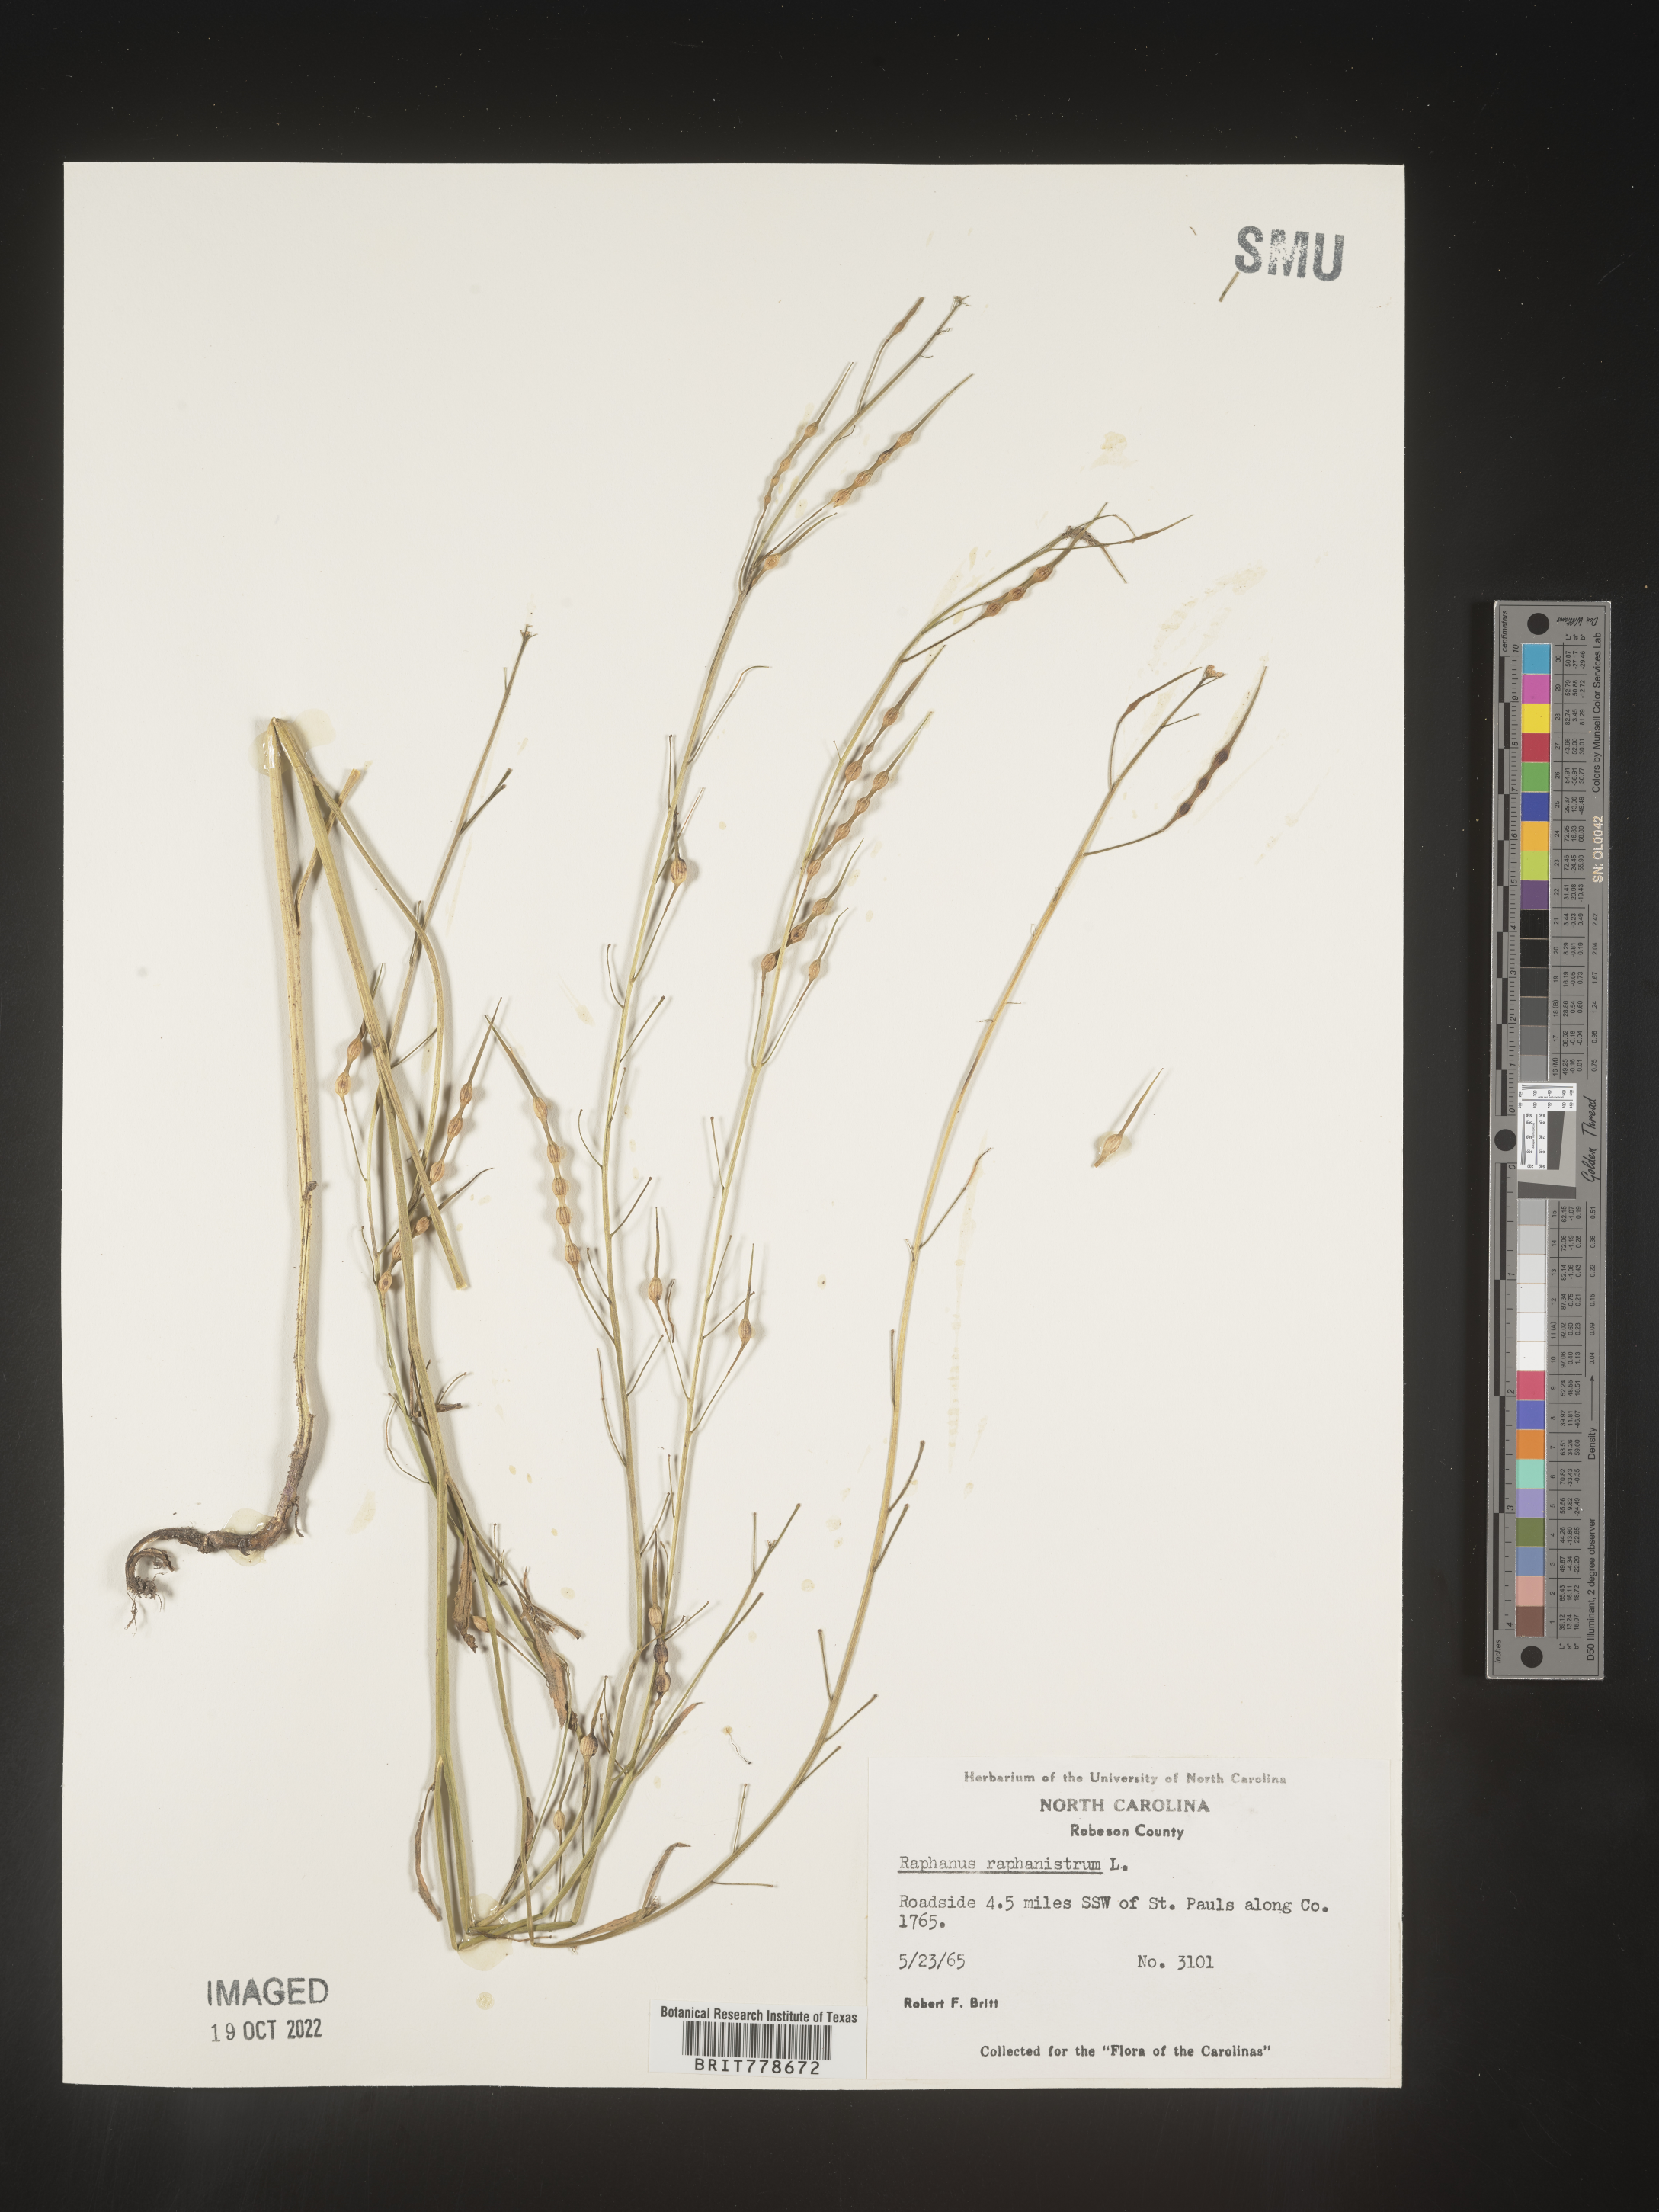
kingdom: Plantae
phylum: Tracheophyta
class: Magnoliopsida
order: Brassicales
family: Brassicaceae
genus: Raphanus
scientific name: Raphanus raphanistrum
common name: Wild radish
